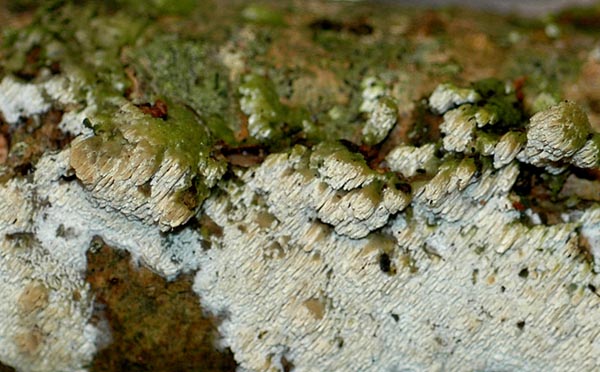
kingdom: Fungi
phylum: Basidiomycota
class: Agaricomycetes
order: Hymenochaetales
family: Schizoporaceae
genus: Schizopora
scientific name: Schizopora paradoxa
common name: hvid tandsvamp
